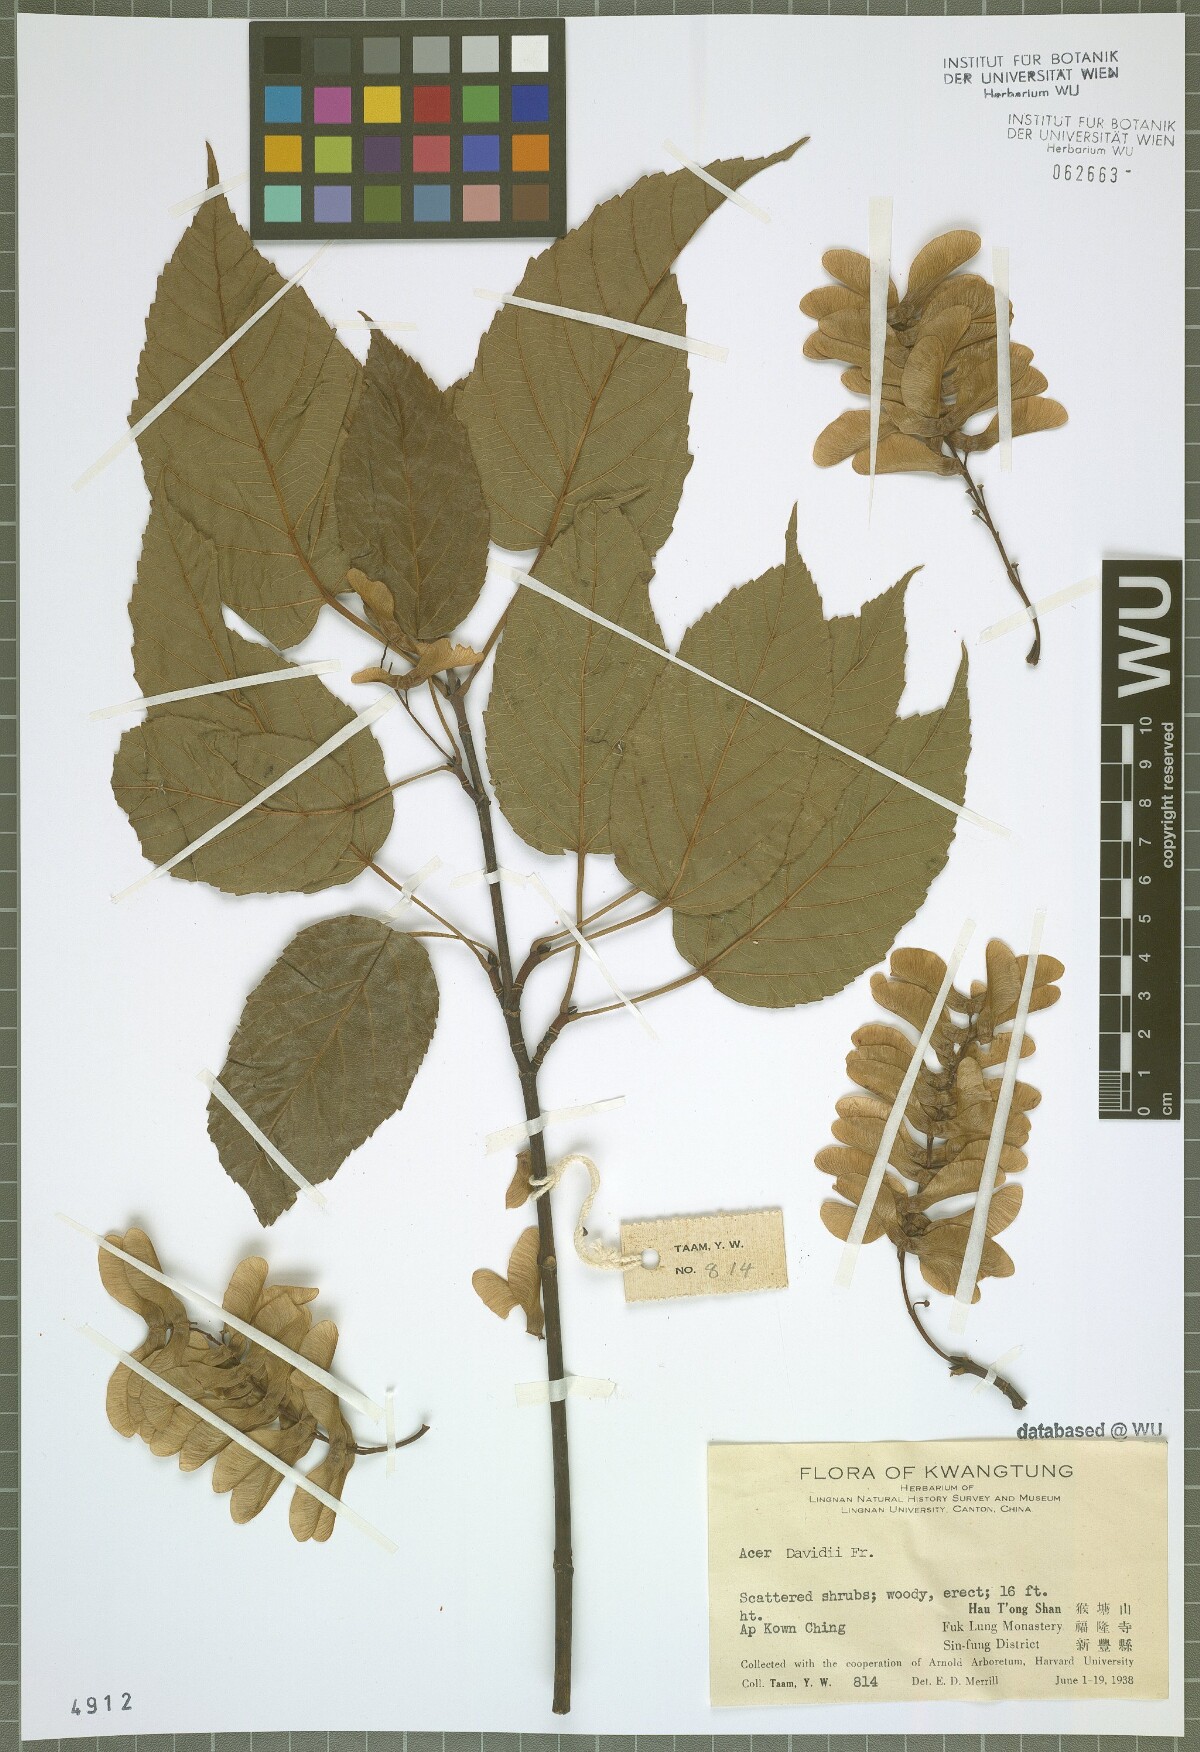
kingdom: Plantae
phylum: Tracheophyta
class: Magnoliopsida
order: Sapindales
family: Sapindaceae
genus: Acer
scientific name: Acer davidii
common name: Father david's maple
